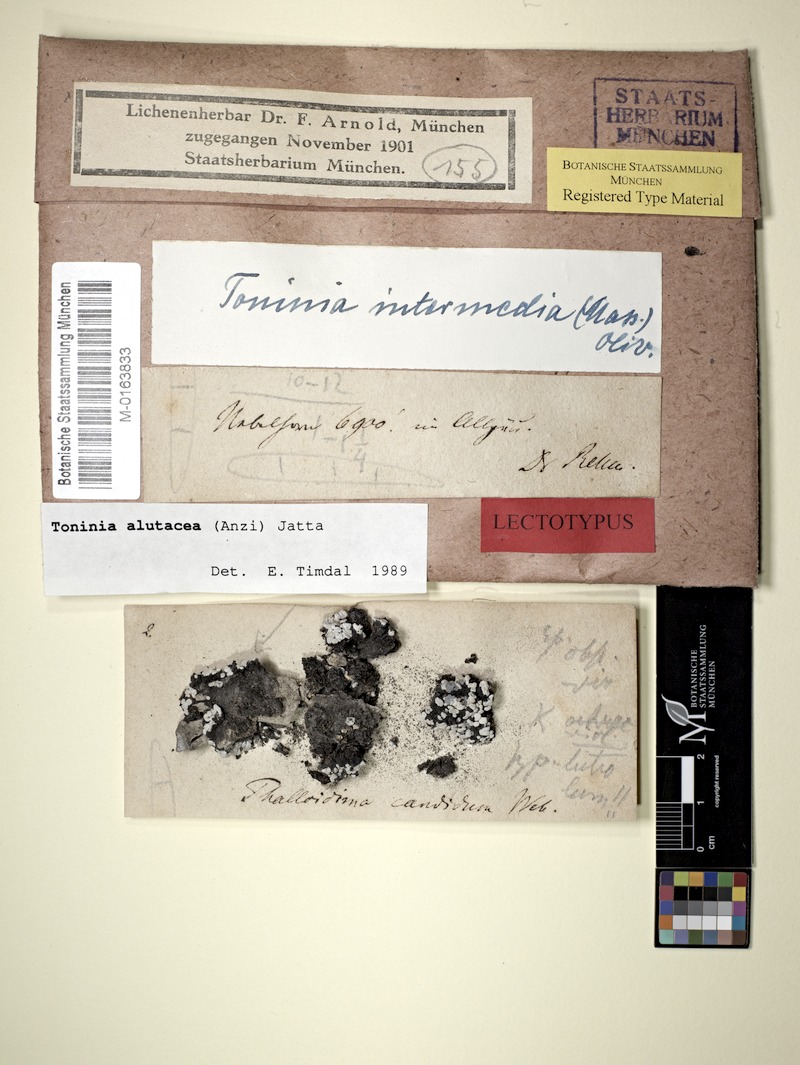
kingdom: Fungi
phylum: Ascomycota
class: Lecanoromycetes
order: Lecanorales
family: Ramalinaceae
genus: Toninia
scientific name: Toninia alutacea
